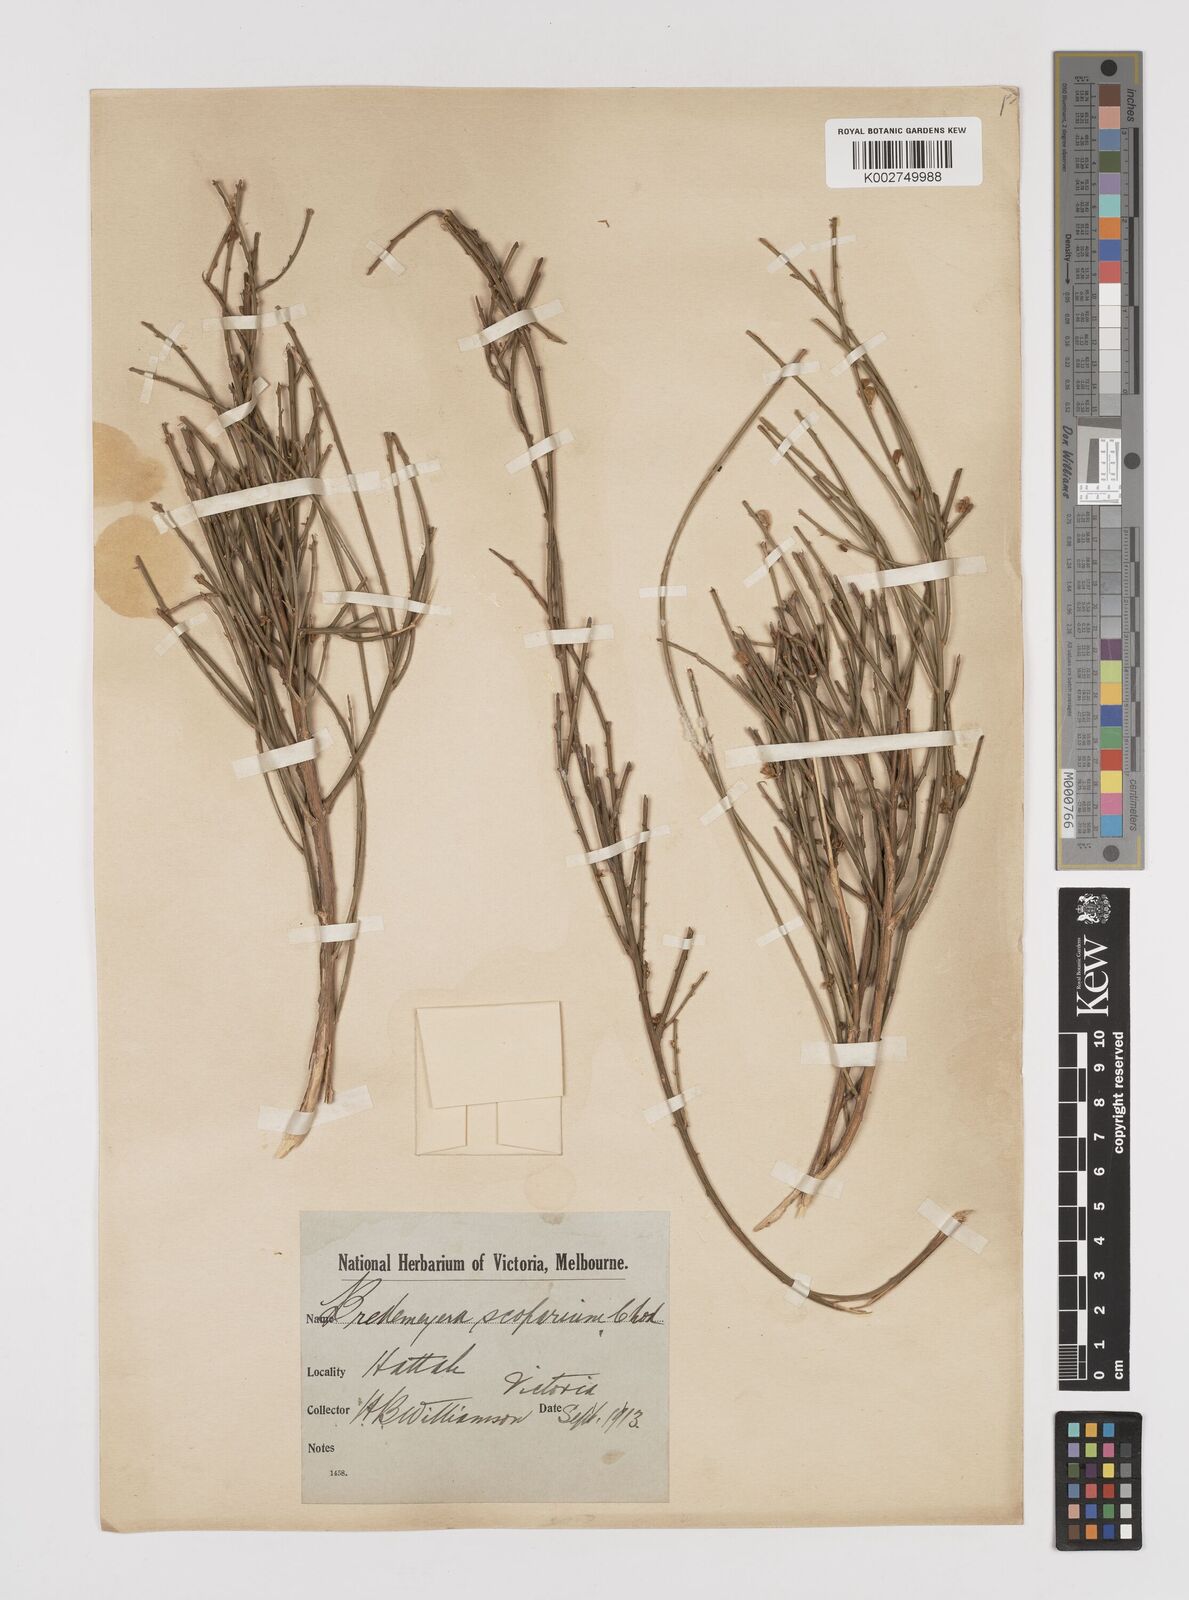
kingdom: Plantae
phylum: Tracheophyta
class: Magnoliopsida
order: Fabales
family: Polygalaceae
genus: Comesperma
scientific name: Comesperma scoparium
